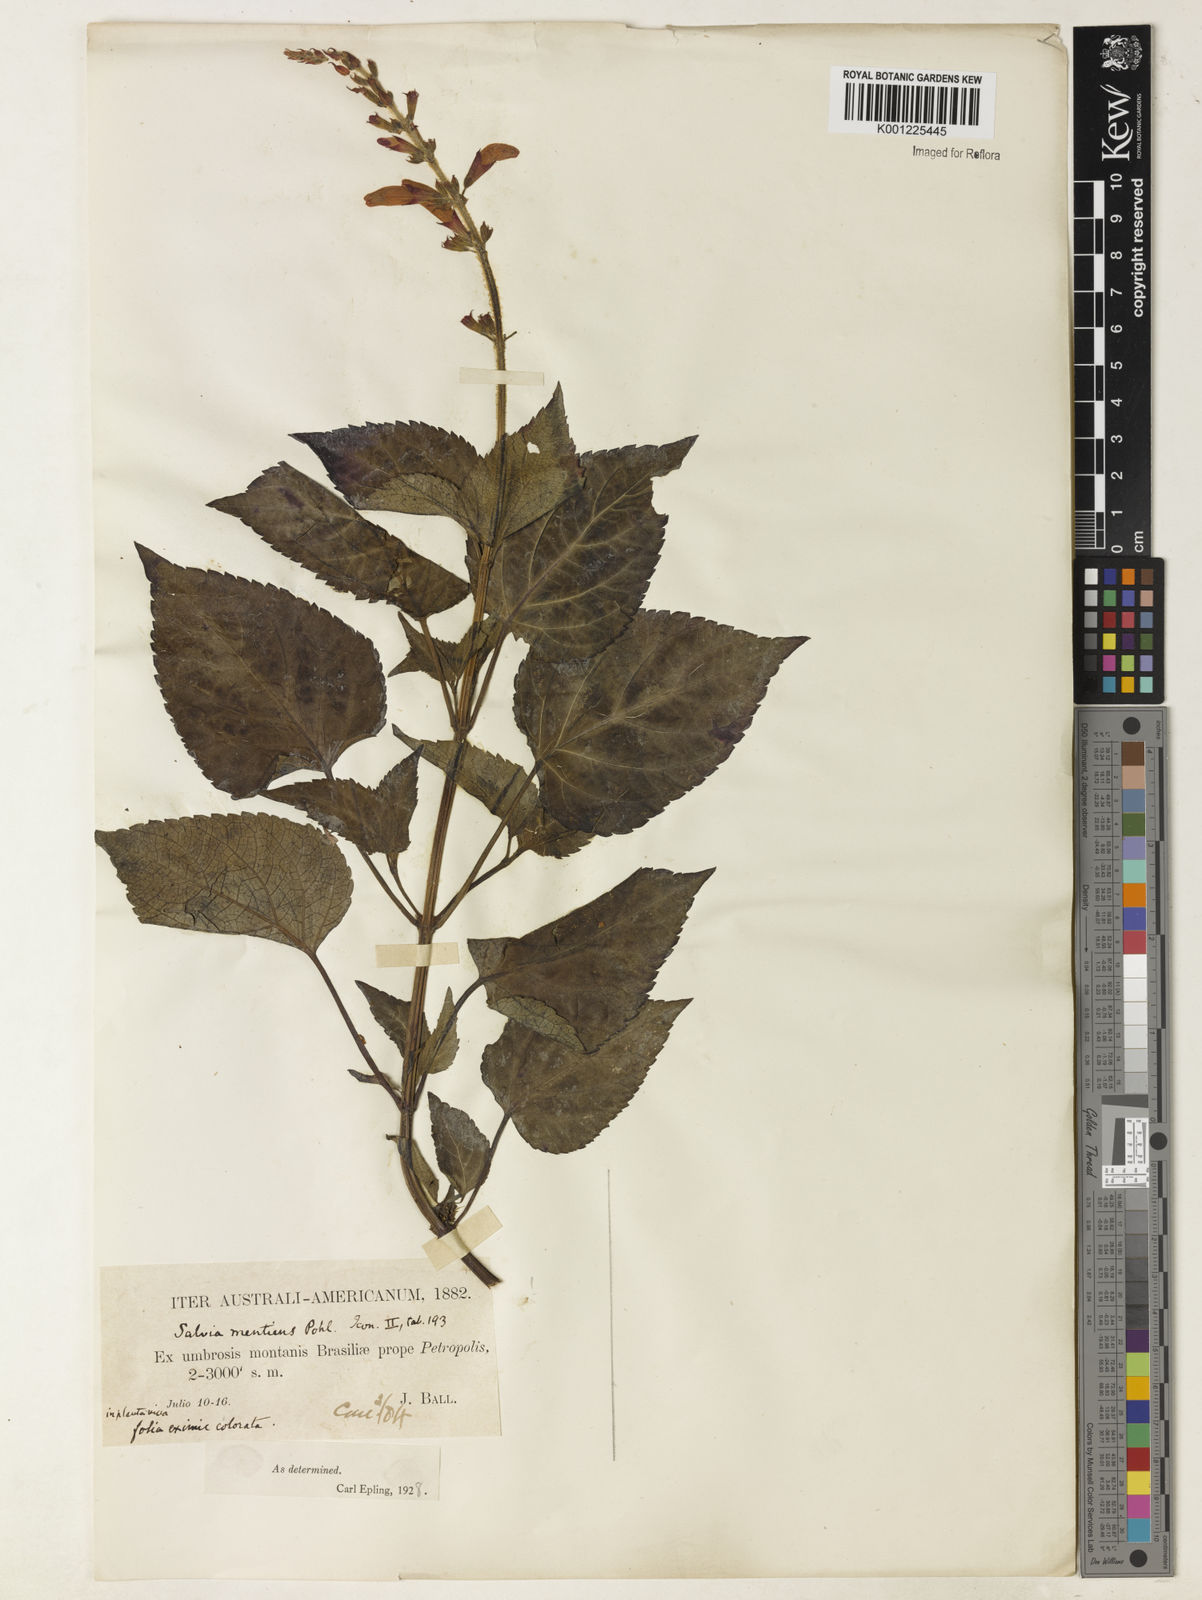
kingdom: Plantae
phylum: Tracheophyta
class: Magnoliopsida
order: Lamiales
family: Lamiaceae
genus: Salvia
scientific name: Salvia mentiens
